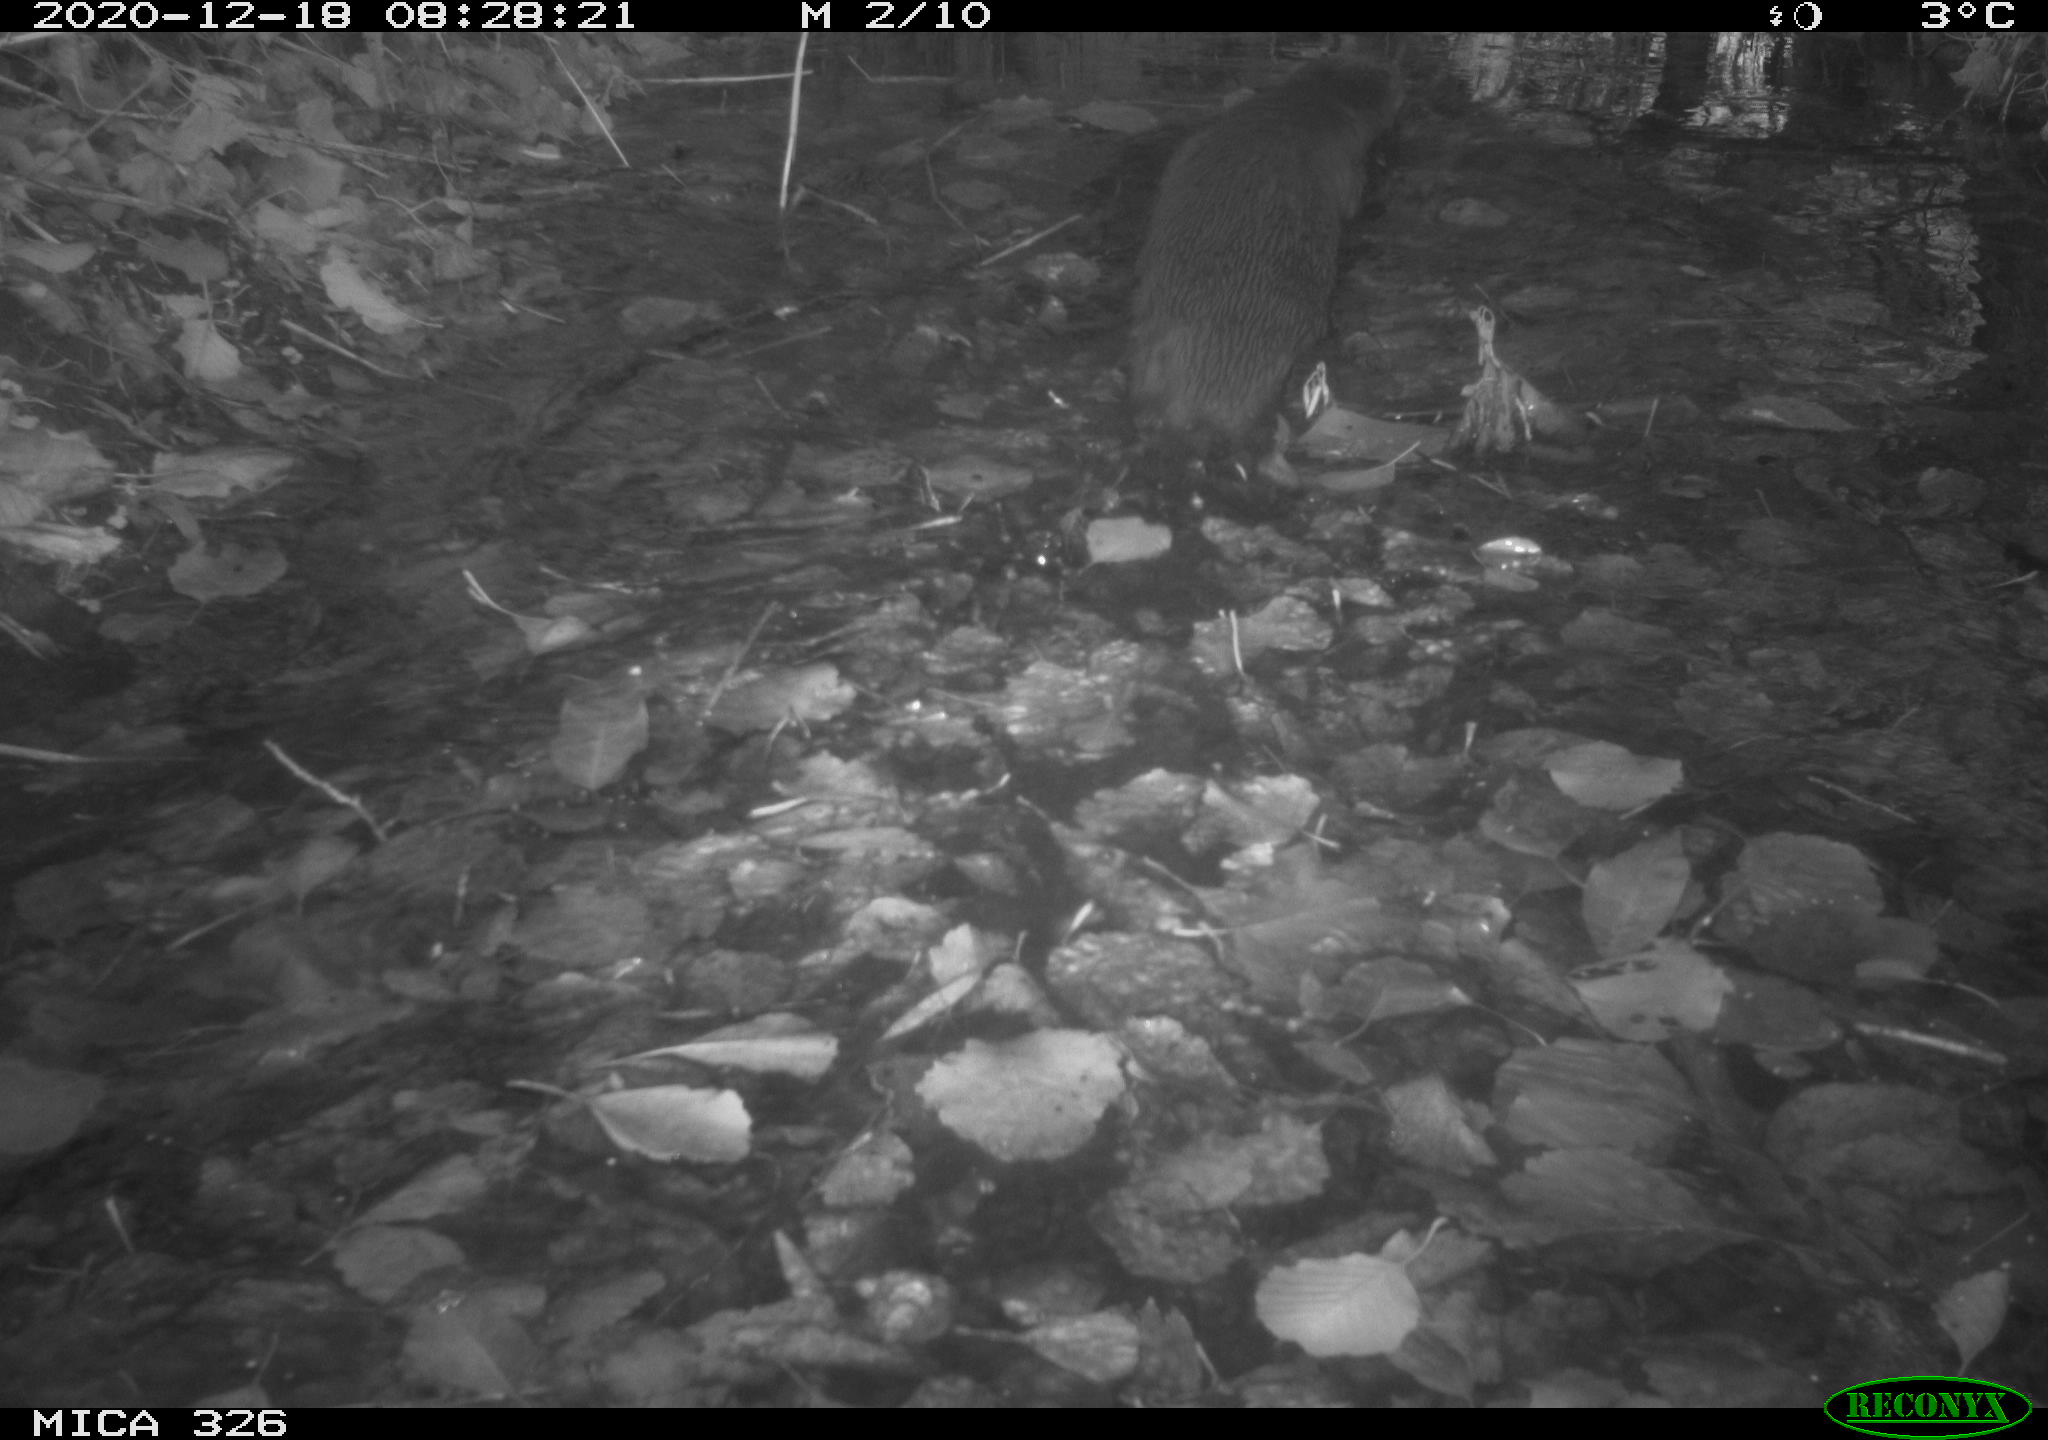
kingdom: Animalia
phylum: Chordata
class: Mammalia
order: Carnivora
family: Mustelidae
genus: Lutra
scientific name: Lutra lutra
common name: European otter
